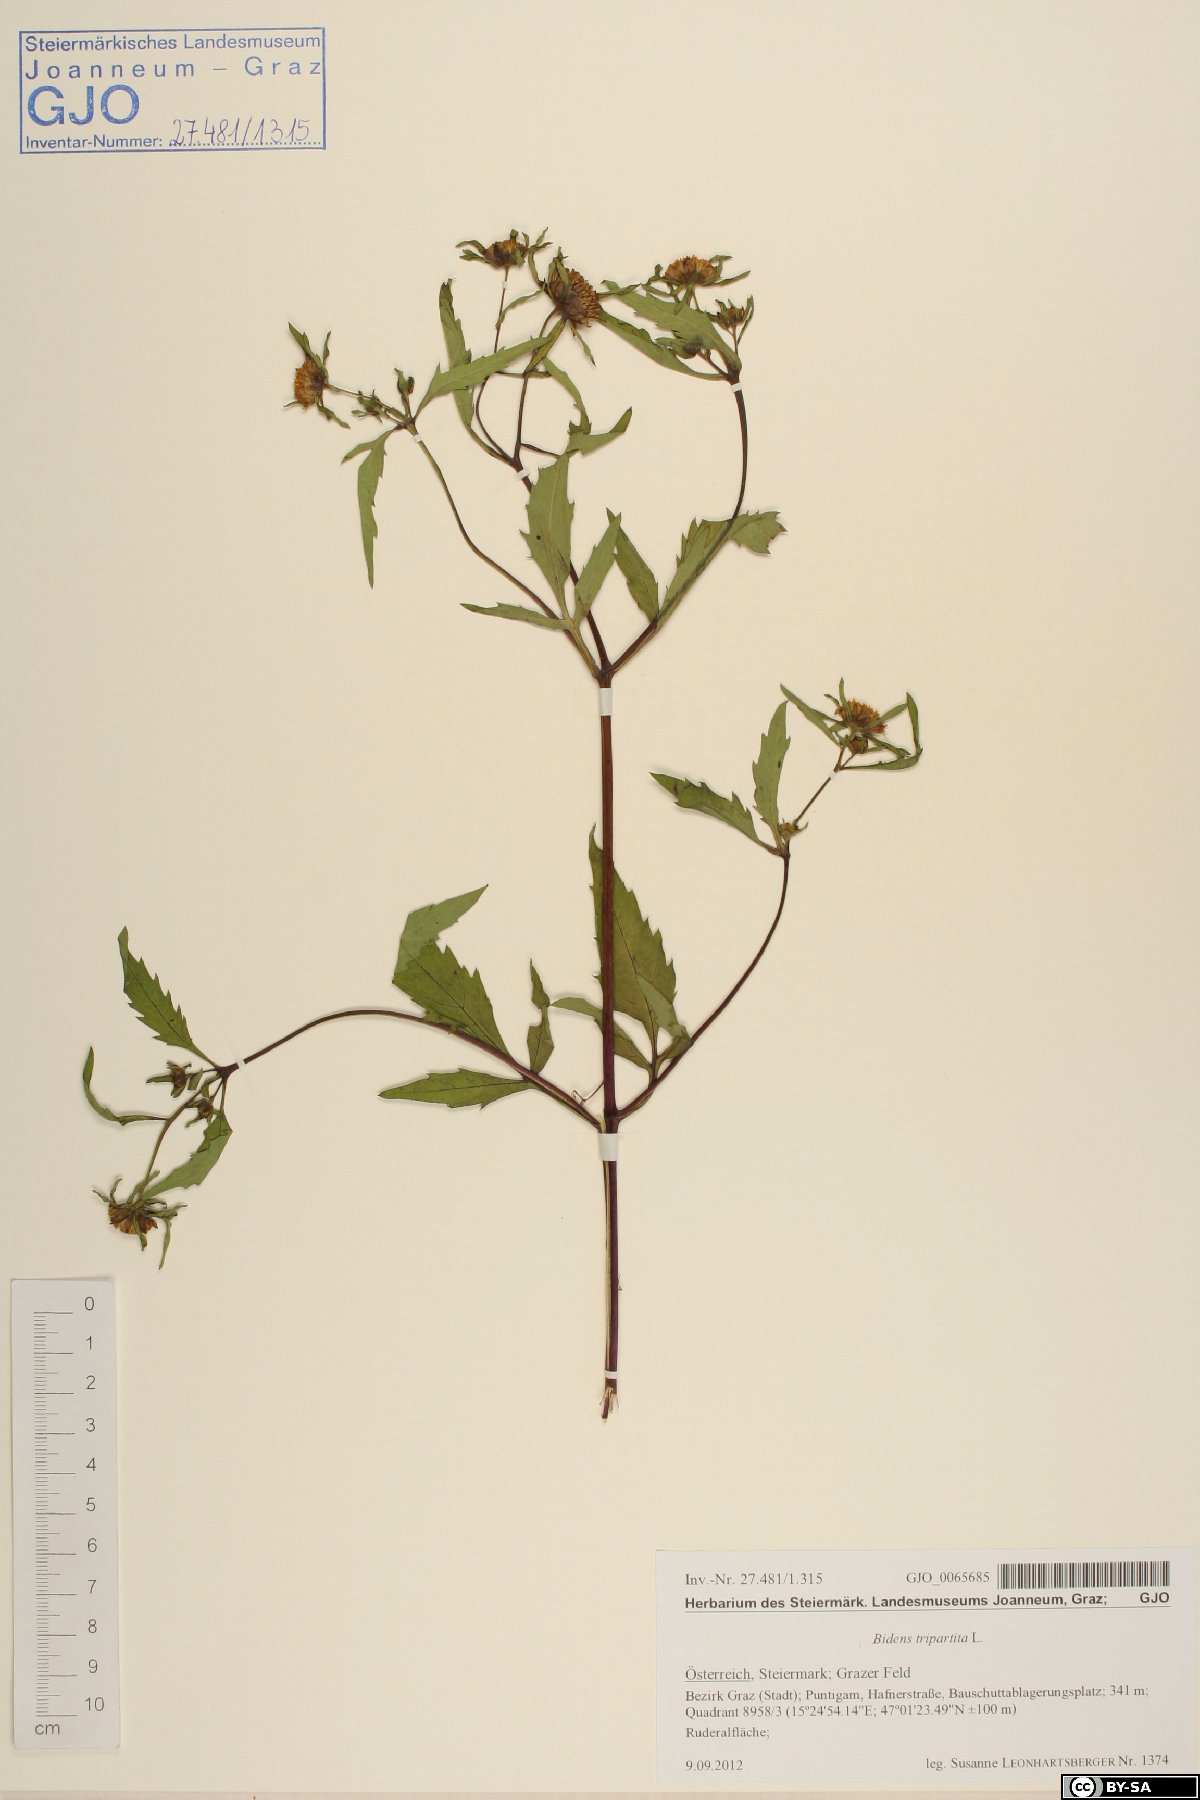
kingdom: Plantae
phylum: Tracheophyta
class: Magnoliopsida
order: Asterales
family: Asteraceae
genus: Bidens
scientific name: Bidens tripartita
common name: Trifid bur-marigold
